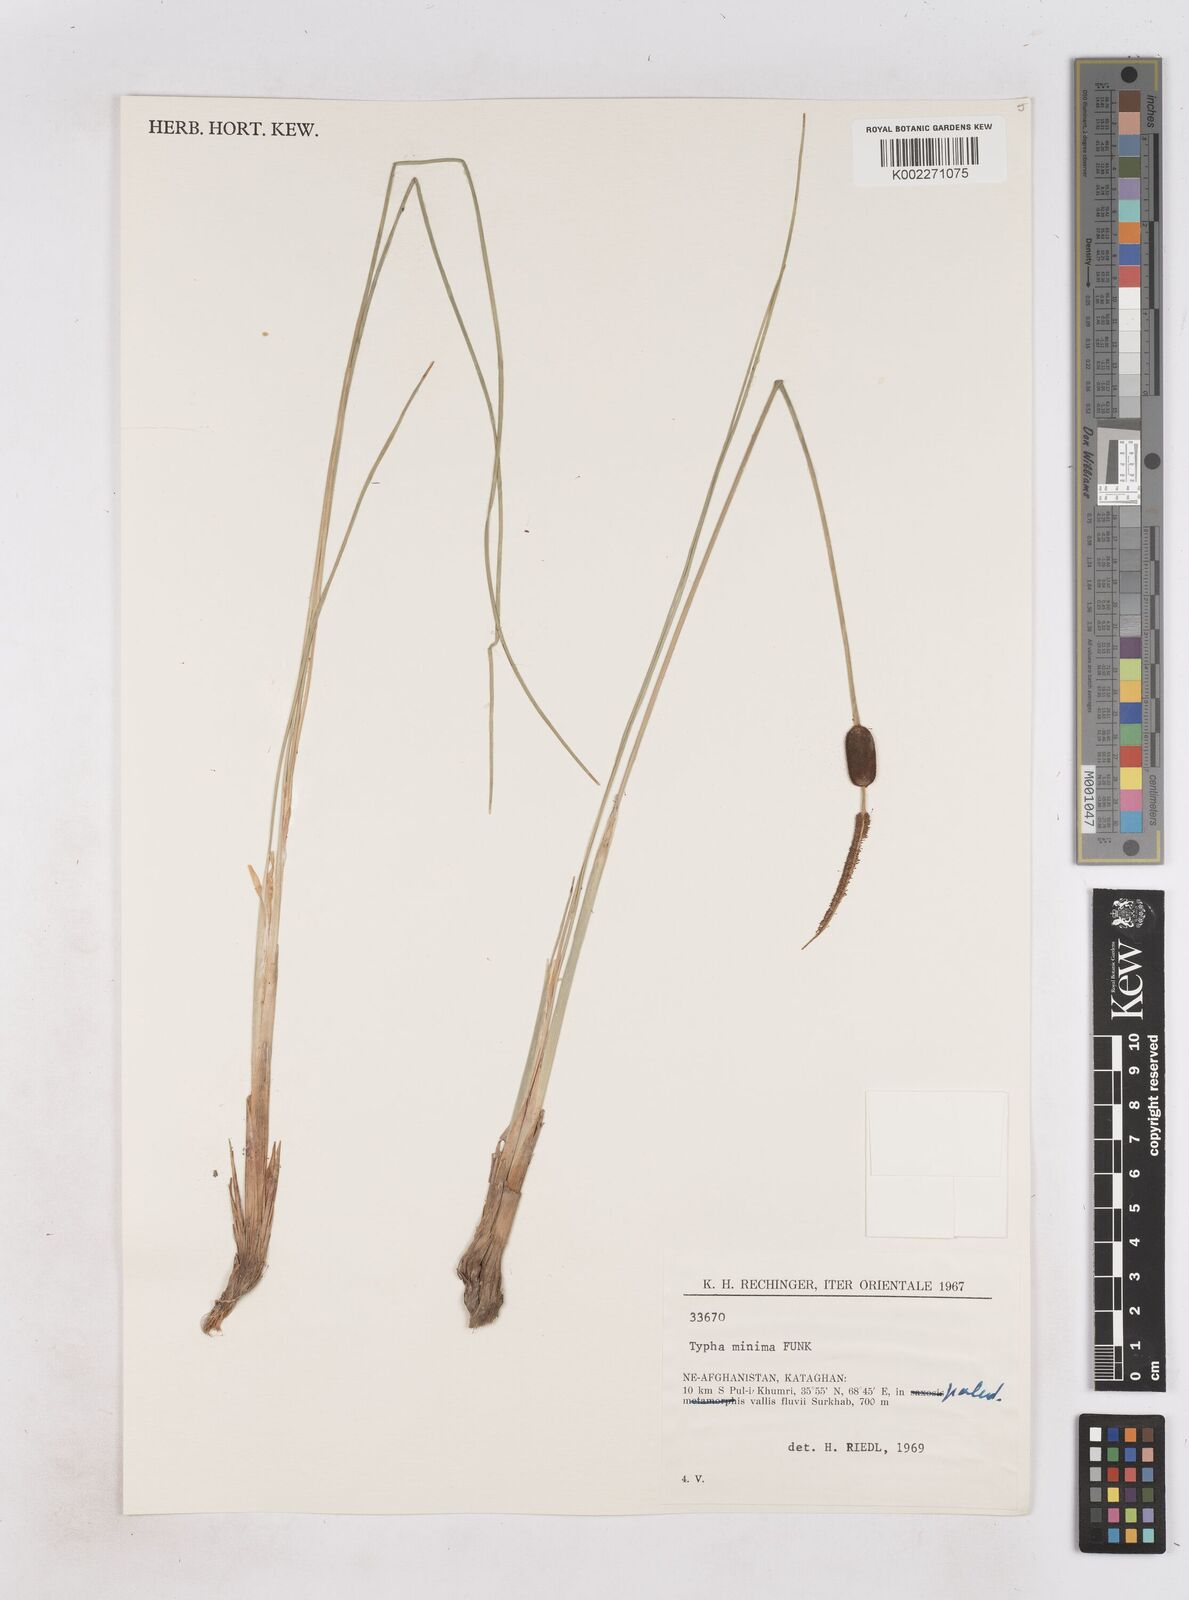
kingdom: Plantae
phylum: Tracheophyta
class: Liliopsida
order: Poales
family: Typhaceae
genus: Typha
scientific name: Typha minima
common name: Dwarf bulrush
